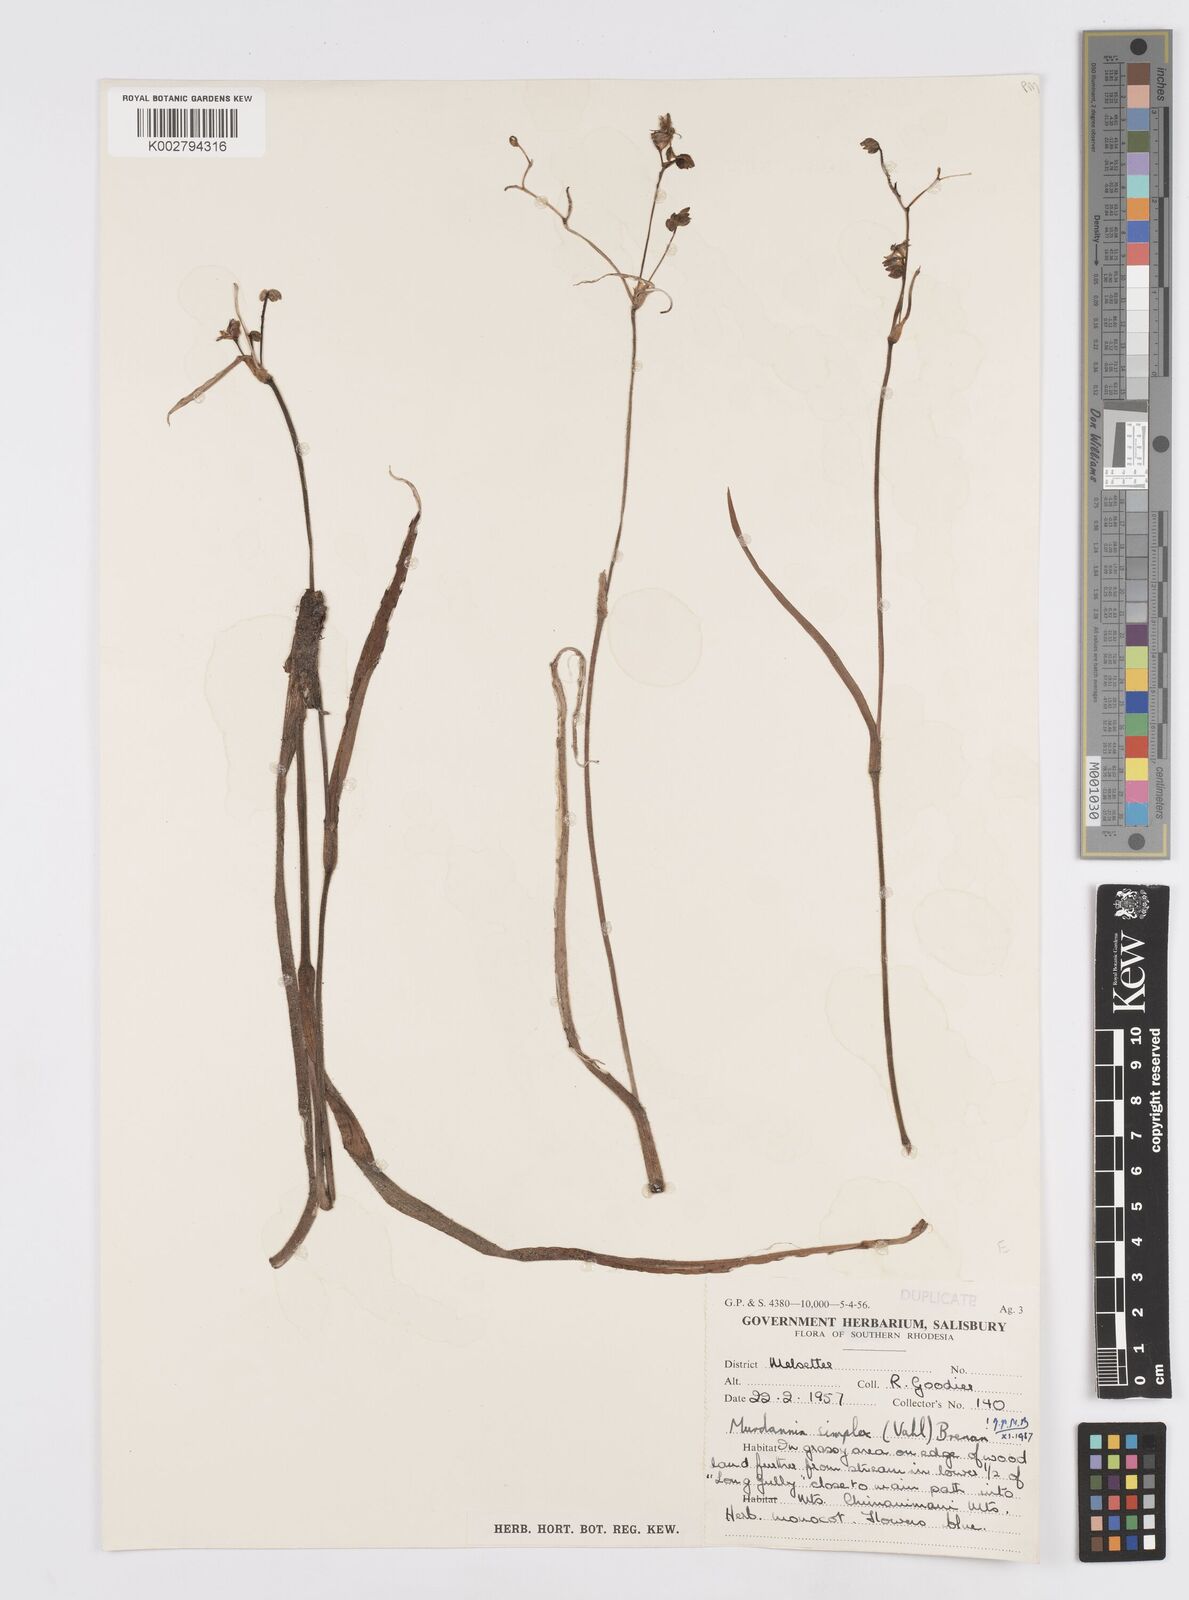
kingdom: Plantae
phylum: Tracheophyta
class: Liliopsida
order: Commelinales
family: Commelinaceae
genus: Murdannia
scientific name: Murdannia simplex
